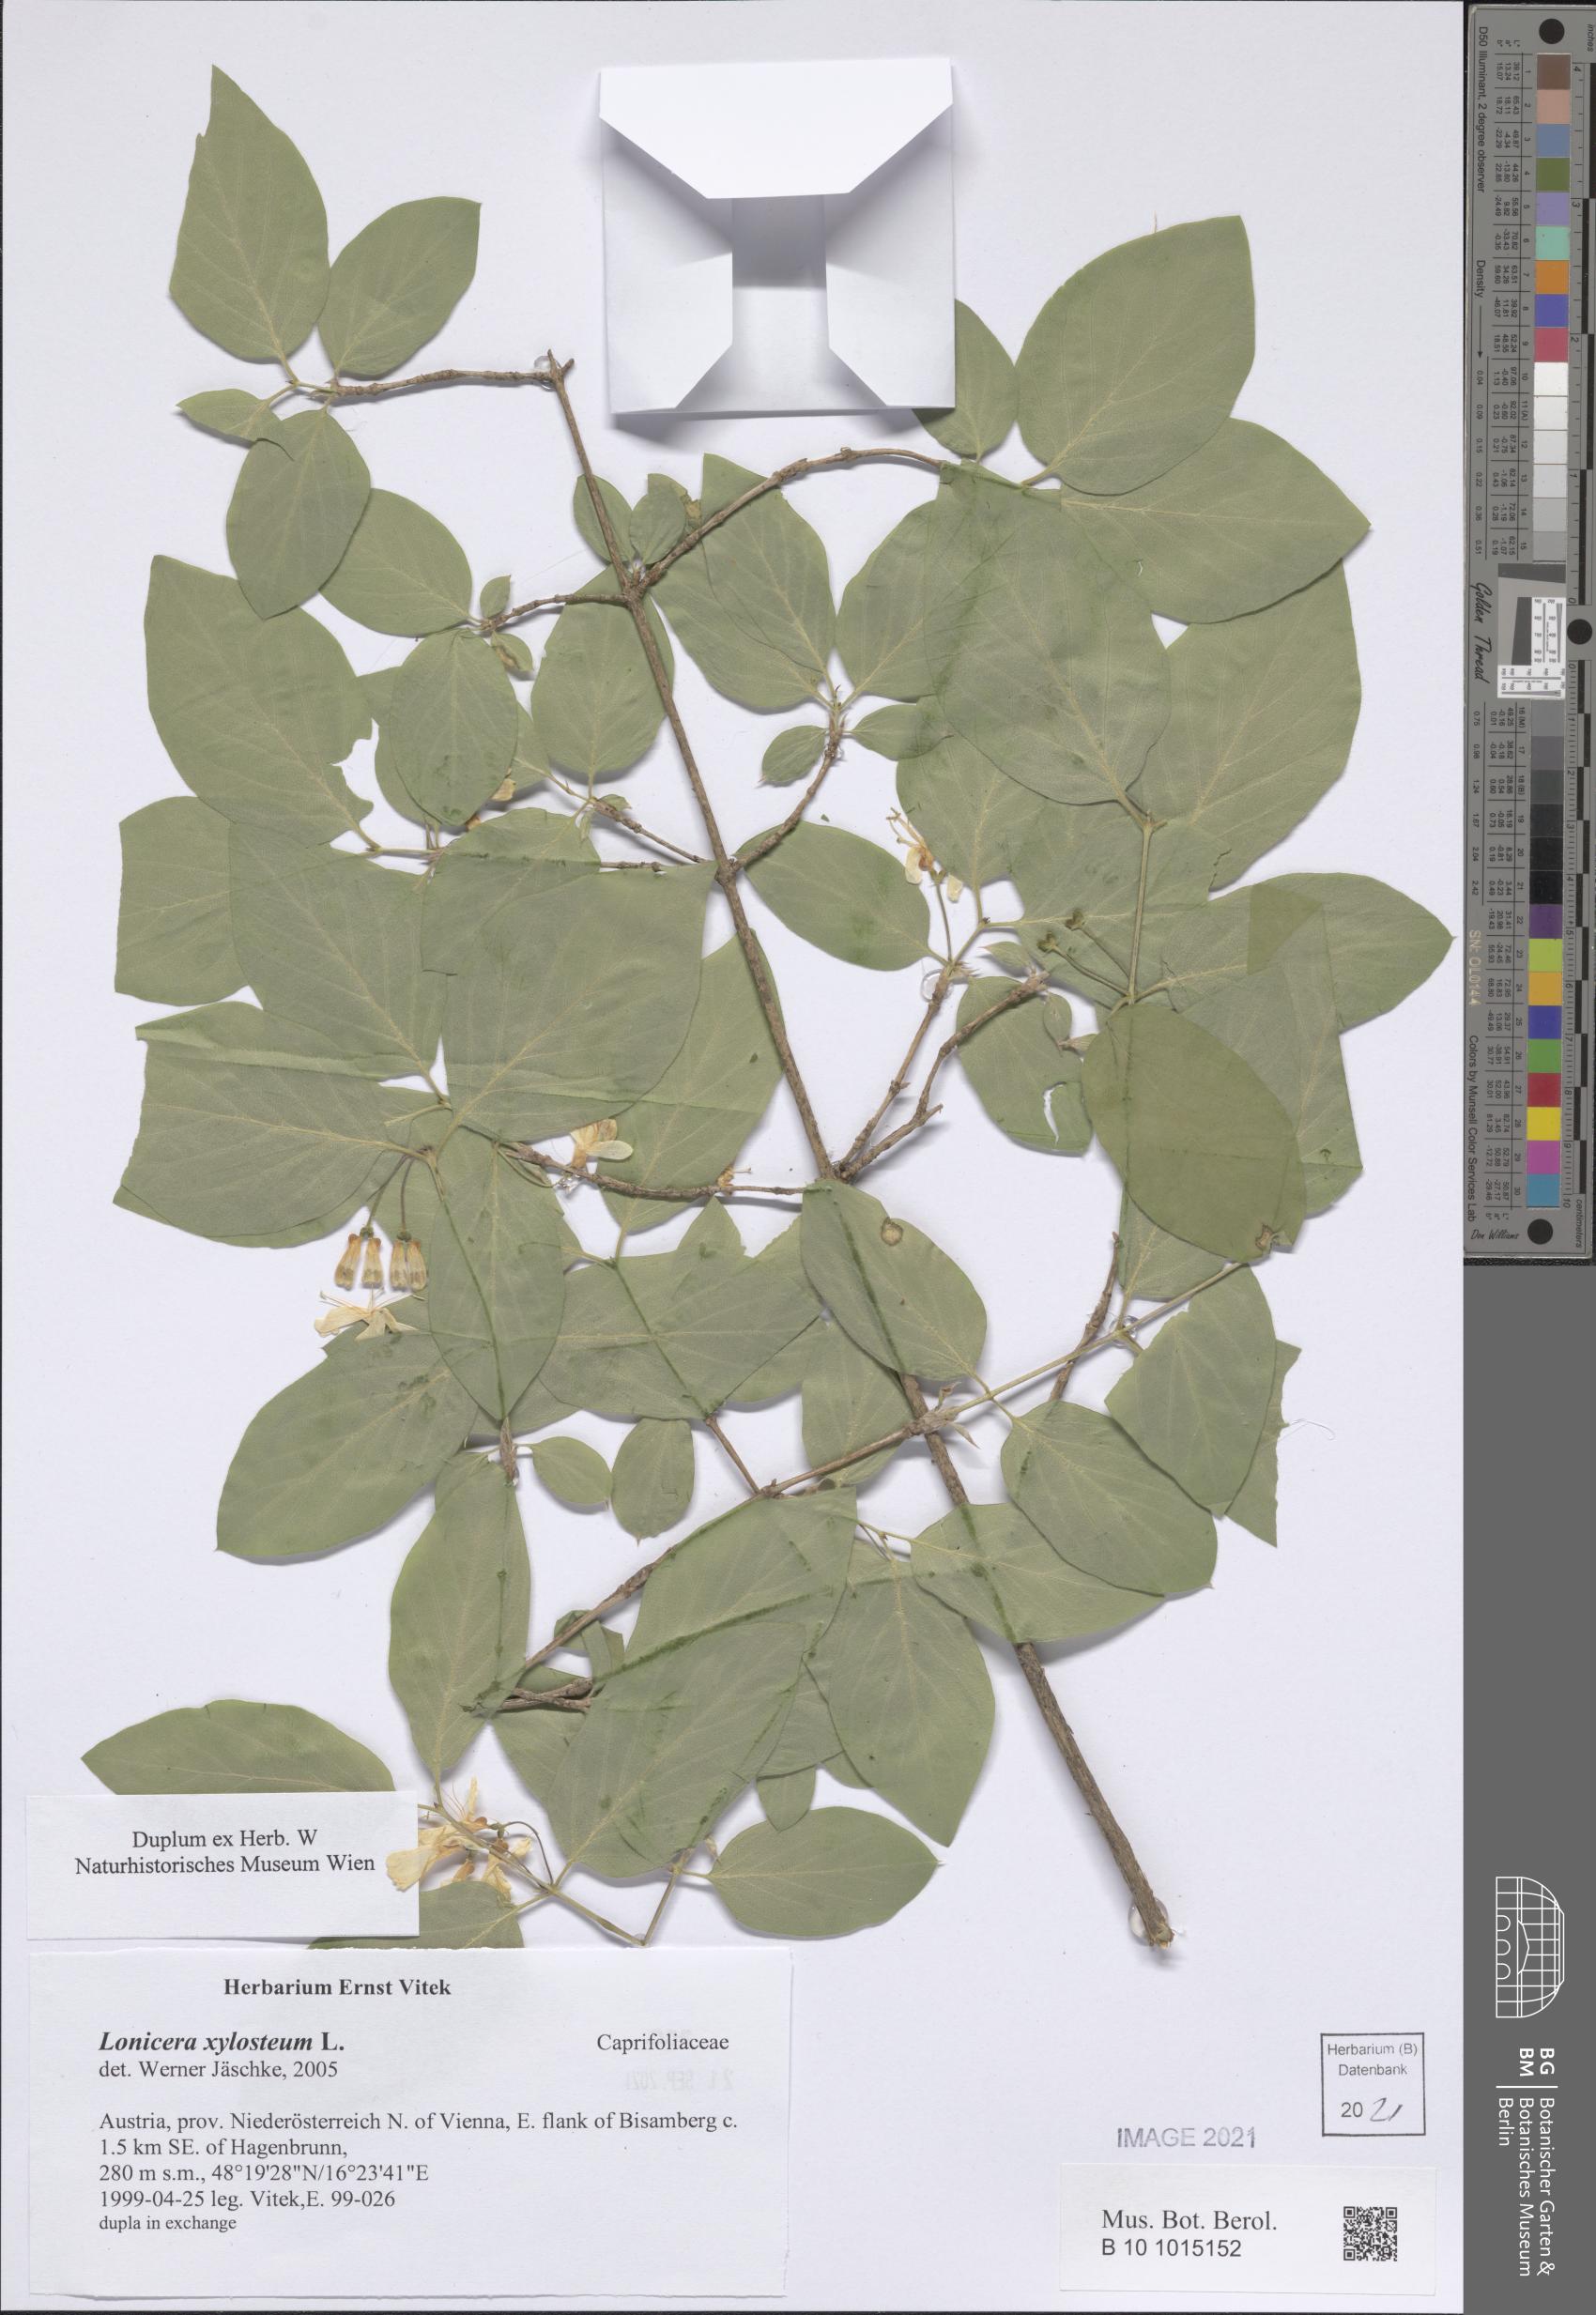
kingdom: Plantae
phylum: Tracheophyta
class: Magnoliopsida
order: Dipsacales
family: Caprifoliaceae
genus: Lonicera
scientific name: Lonicera xylosteum
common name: Fly honeysuckle
